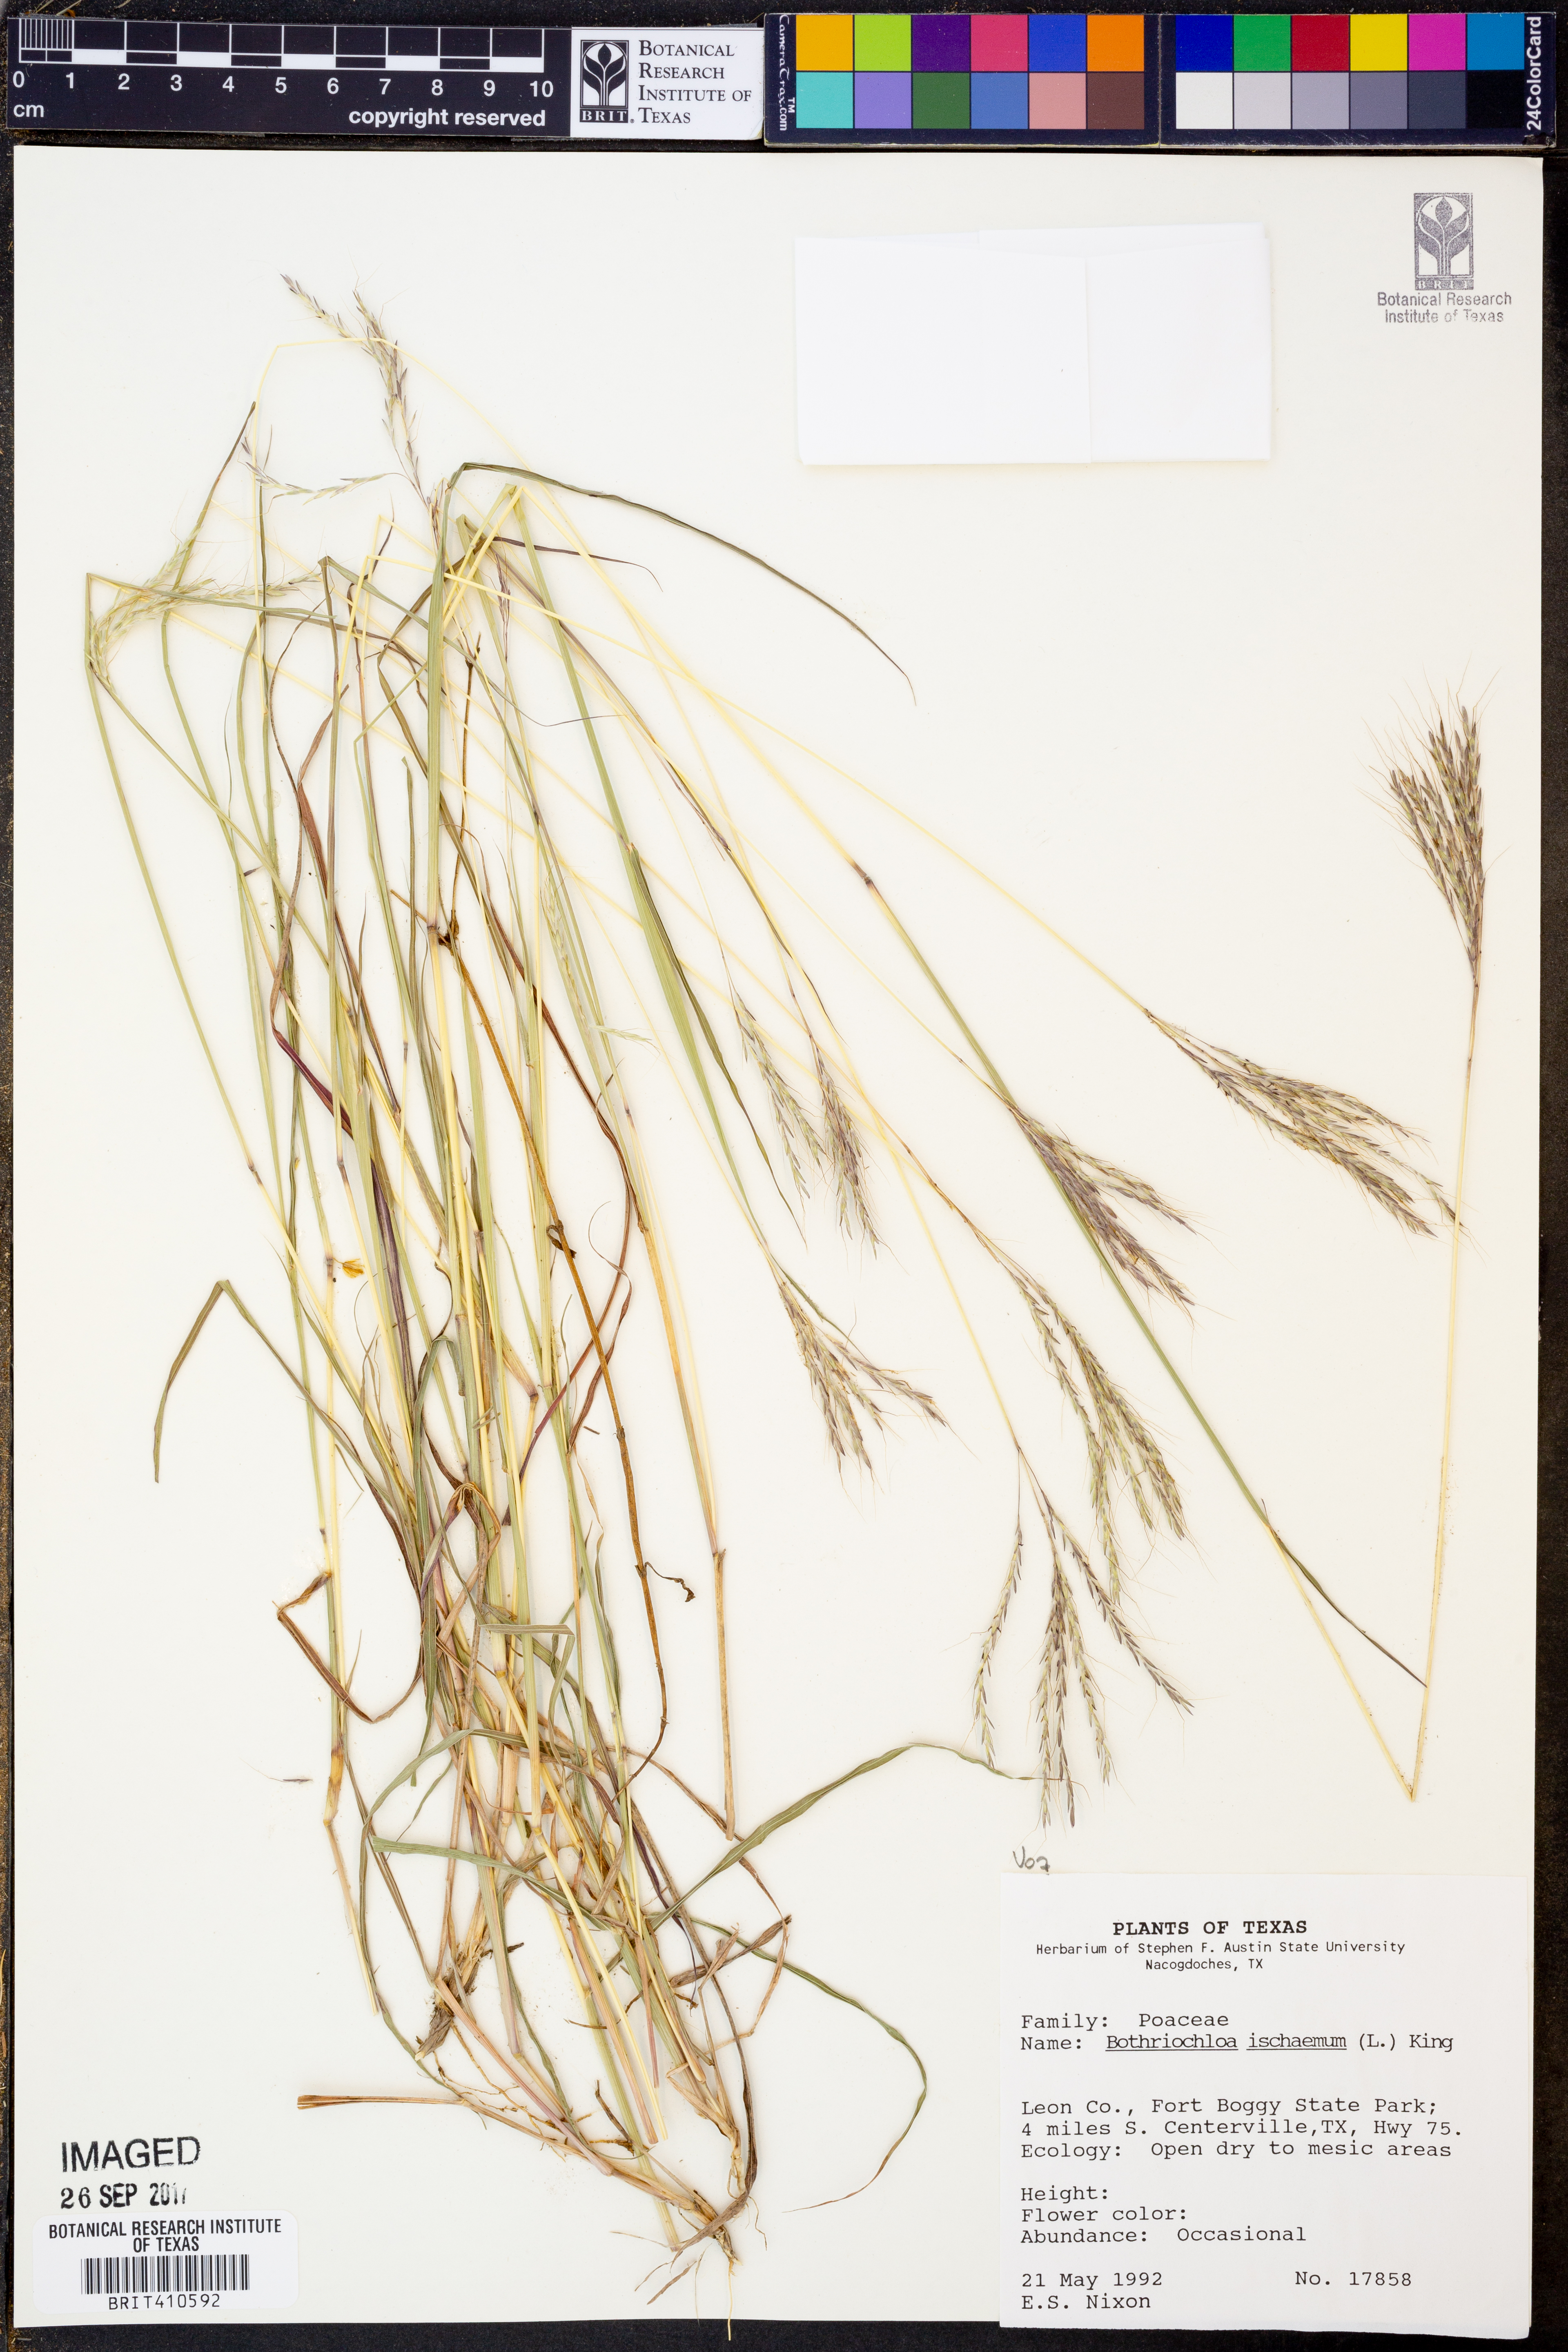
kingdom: Plantae
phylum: Tracheophyta
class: Liliopsida
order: Poales
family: Poaceae
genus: Bothriochloa
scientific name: Bothriochloa ischaemum
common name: Yellow bluestem
